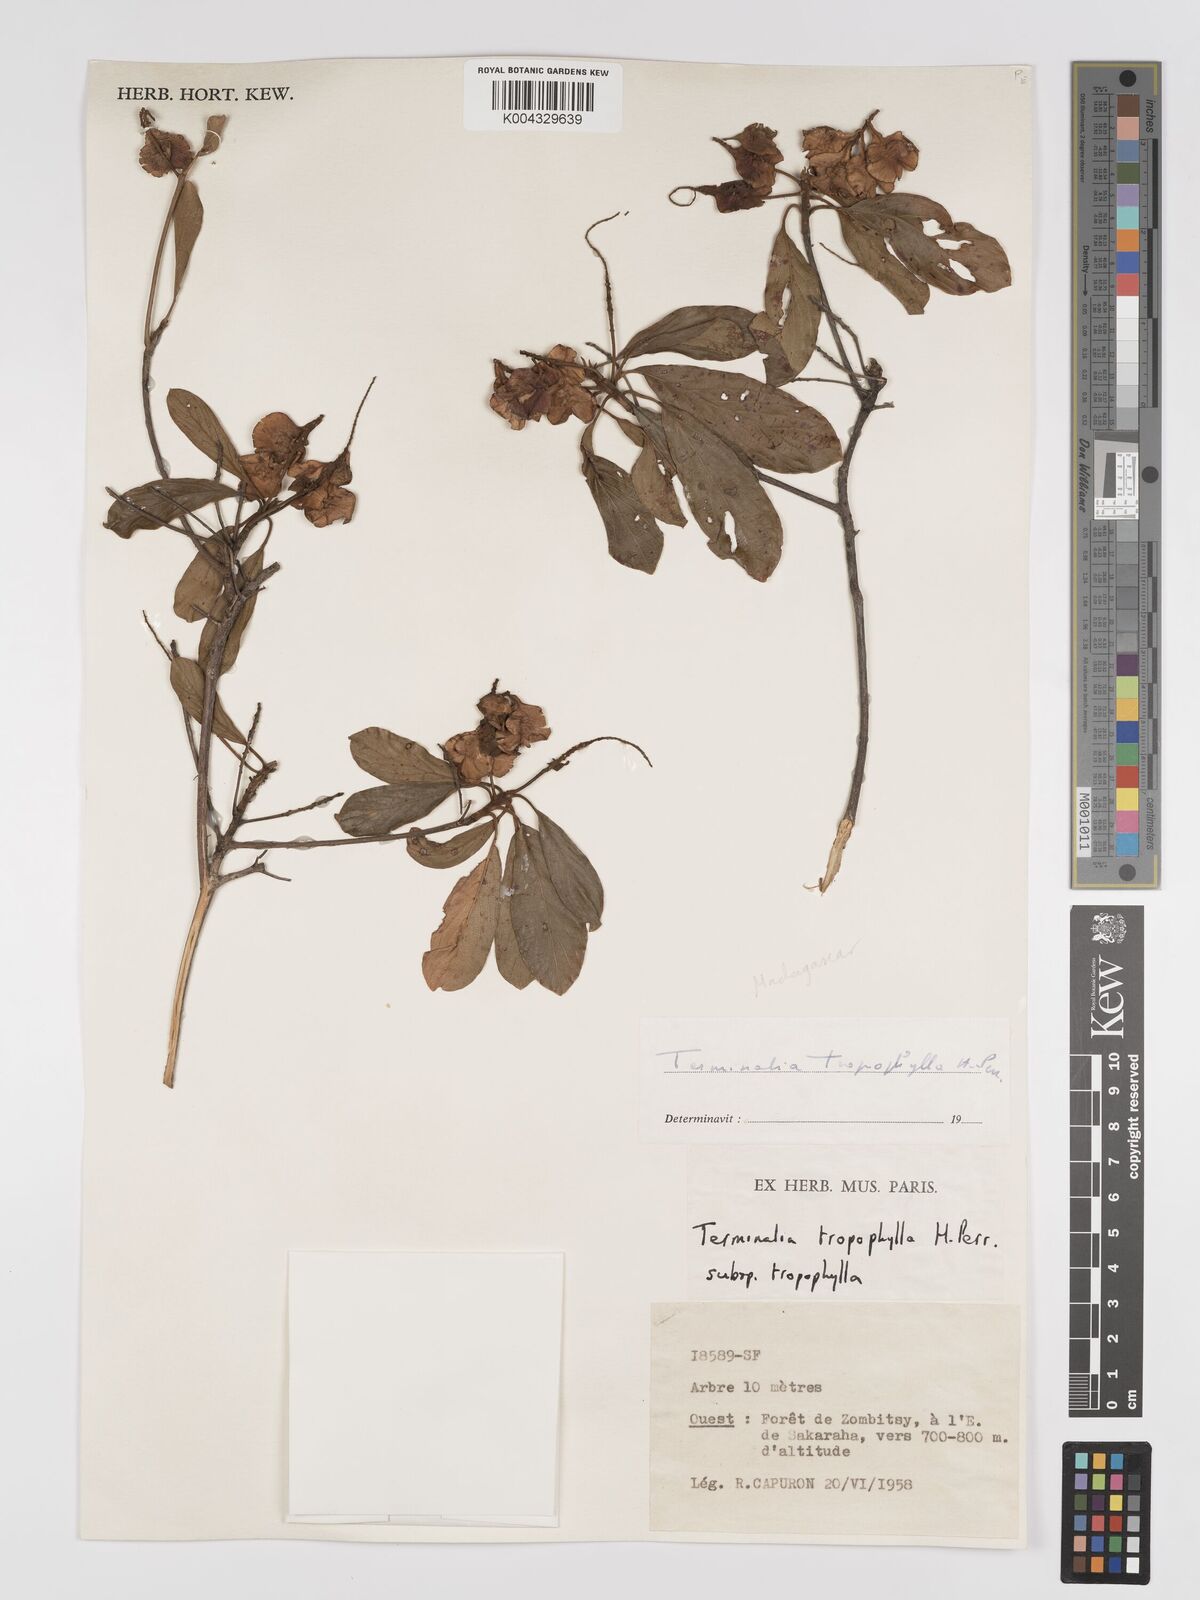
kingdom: Plantae
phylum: Tracheophyta
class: Magnoliopsida
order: Myrtales
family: Combretaceae
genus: Terminalia
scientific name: Terminalia tropophylla
